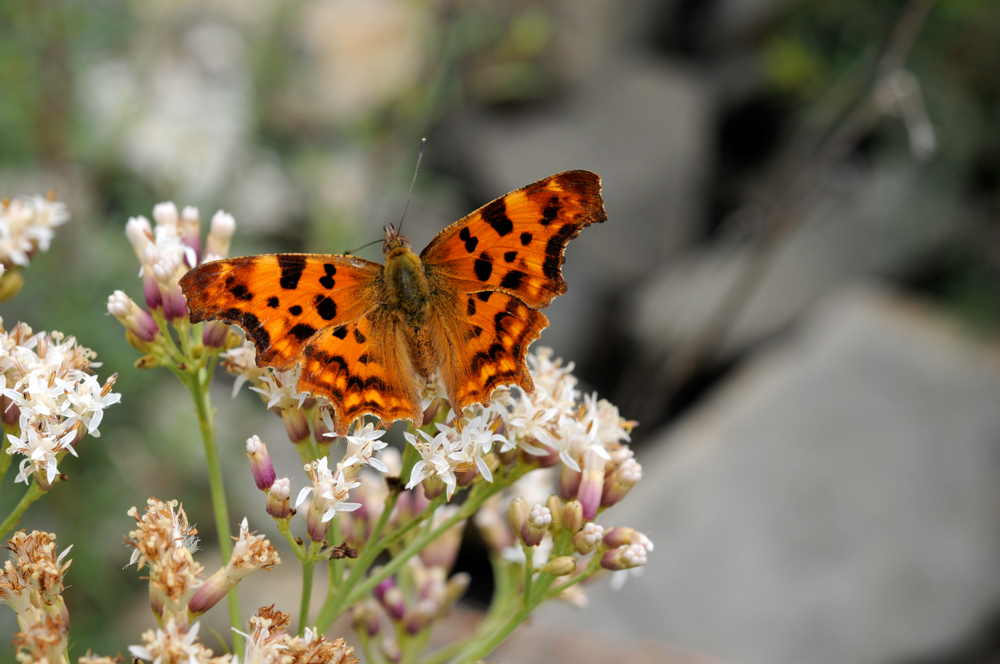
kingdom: Animalia
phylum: Arthropoda
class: Insecta
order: Lepidoptera
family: Nymphalidae
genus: Polygonia
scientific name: Polygonia c-album
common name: Comma
